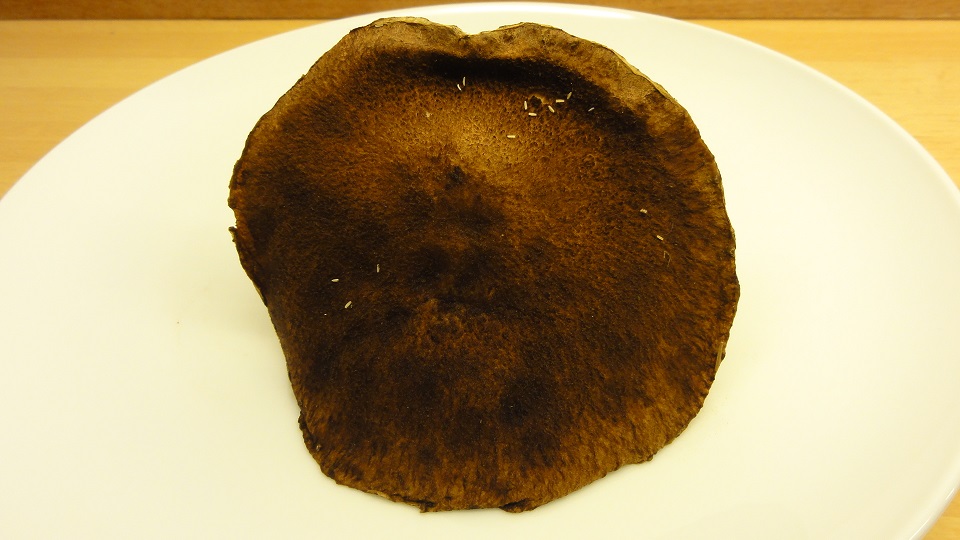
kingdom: Fungi
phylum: Basidiomycota
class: Agaricomycetes
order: Boletales
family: Suillaceae
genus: Suillus
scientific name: Suillus cavipes
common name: hulstokket slimrørhat
